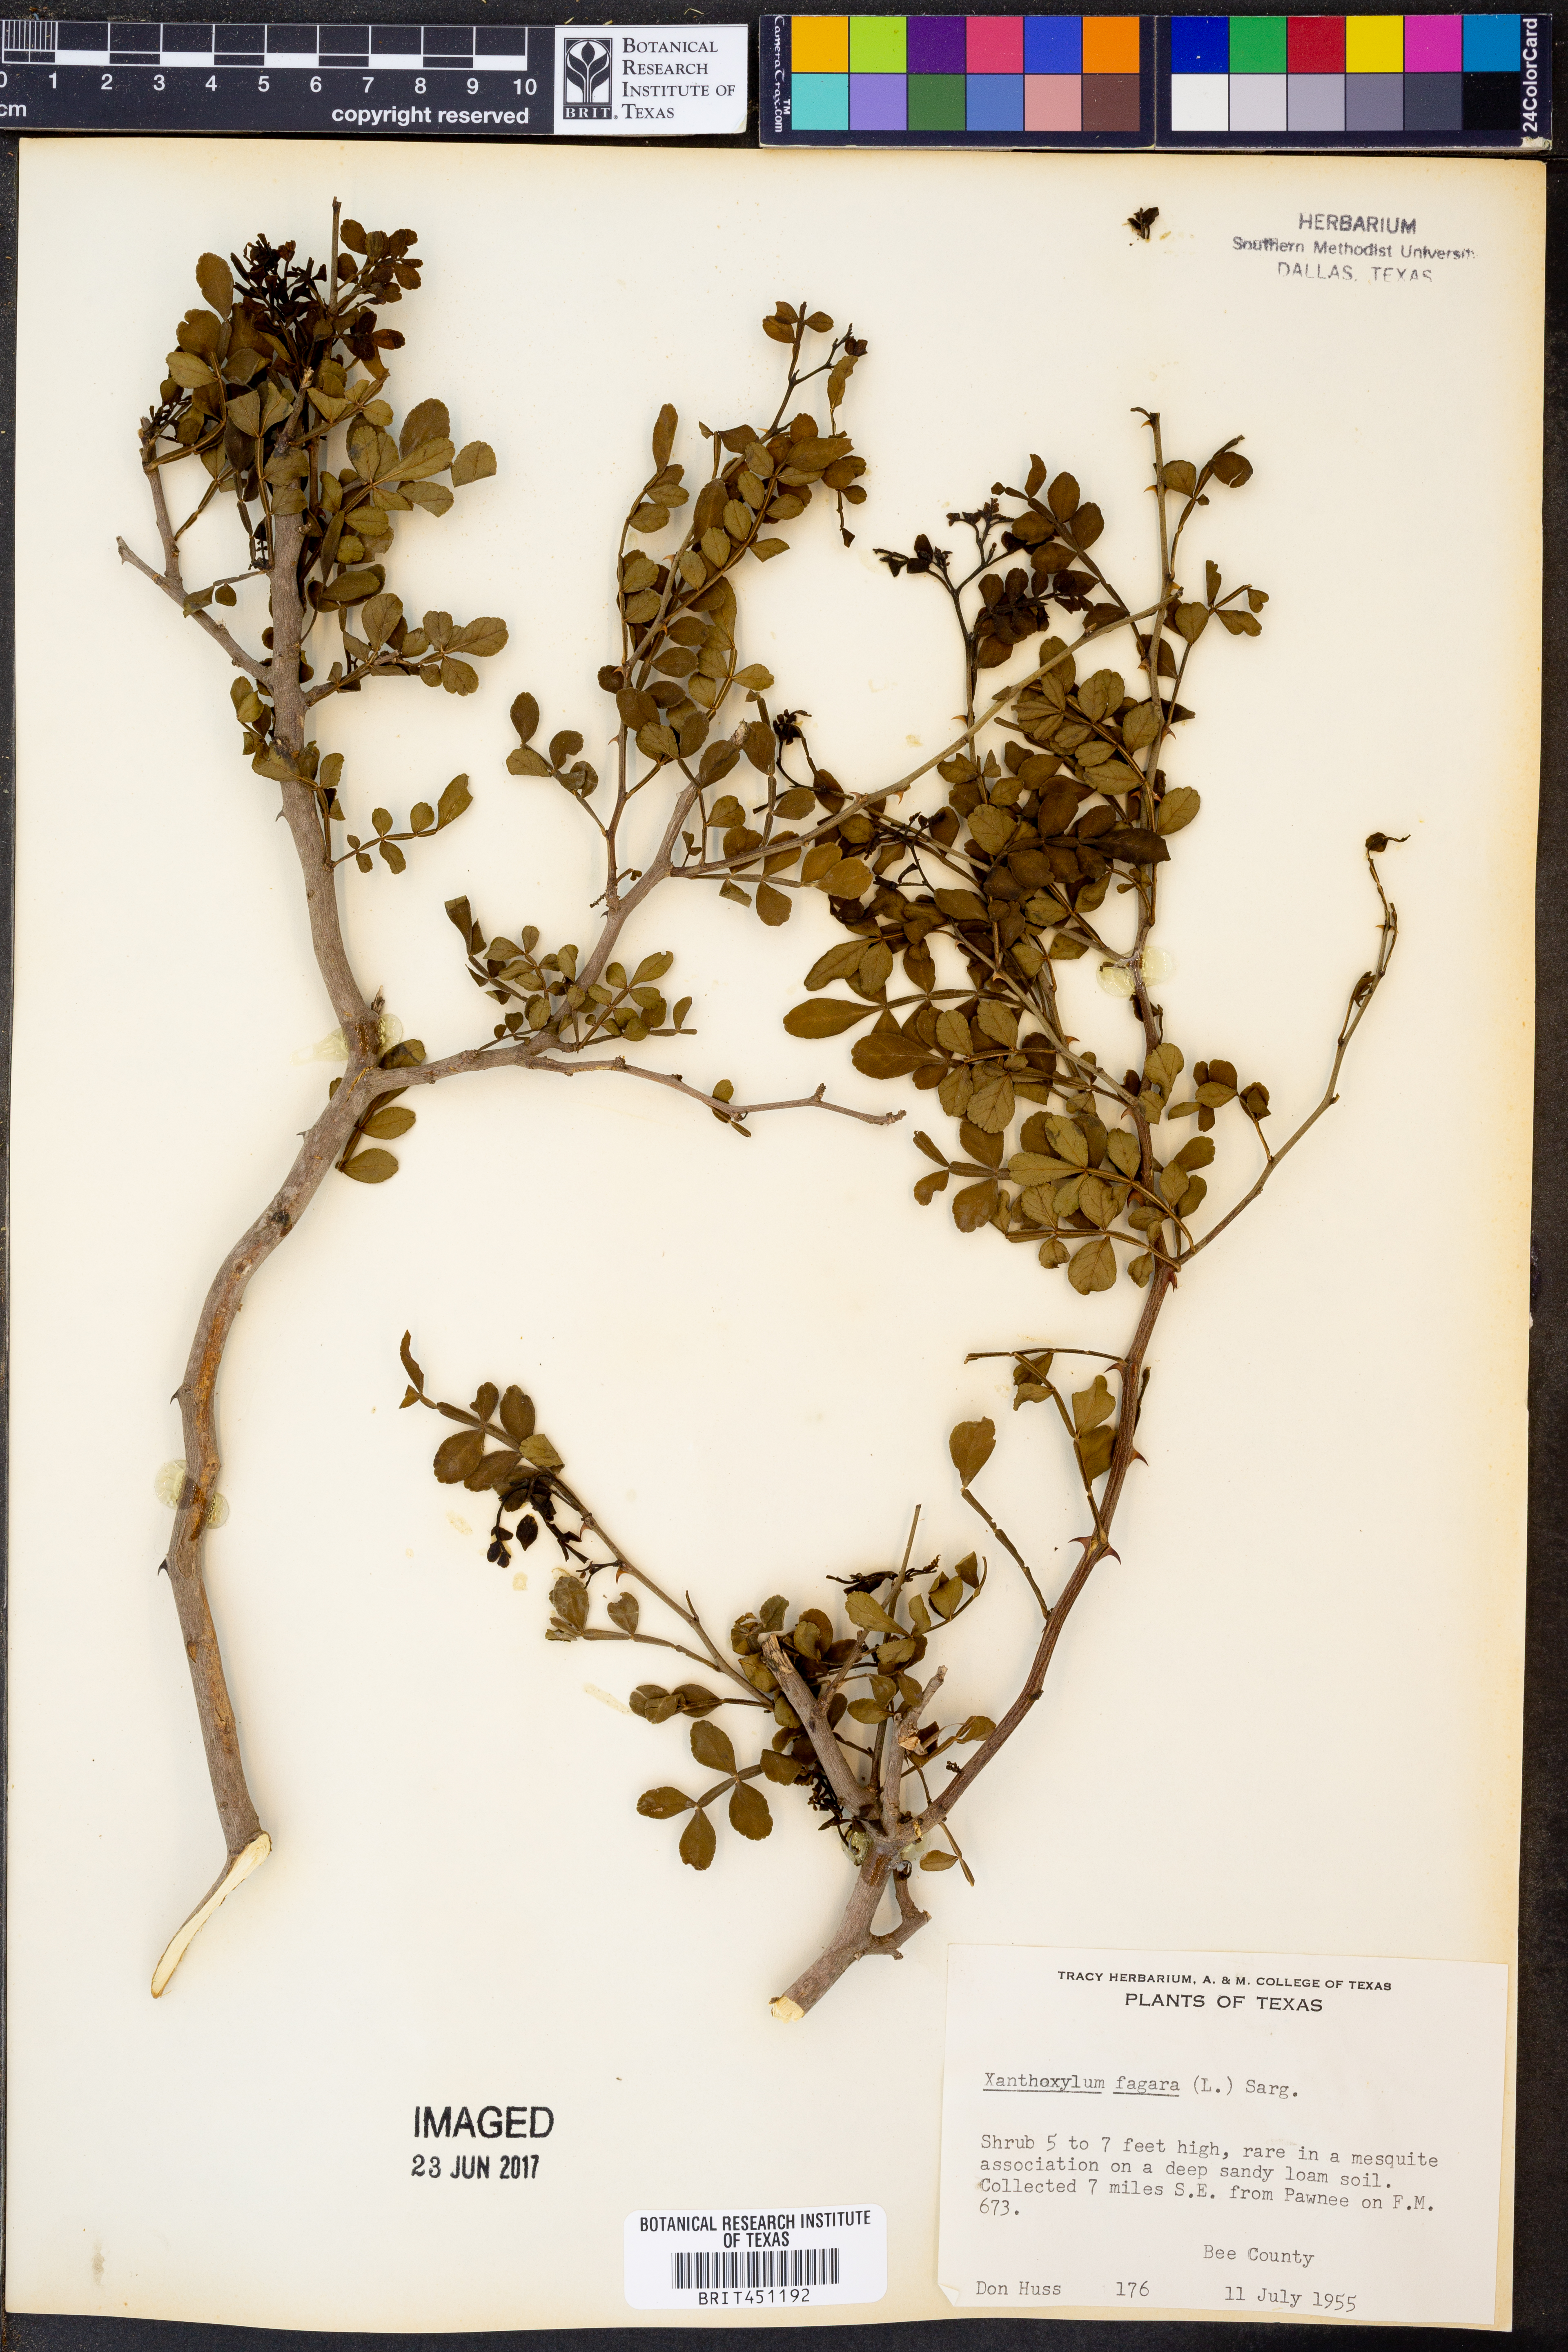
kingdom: Plantae
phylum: Tracheophyta
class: Magnoliopsida
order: Sapindales
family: Rutaceae
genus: Zanthoxylum
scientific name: Zanthoxylum fagara
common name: Lime prickly-ash
